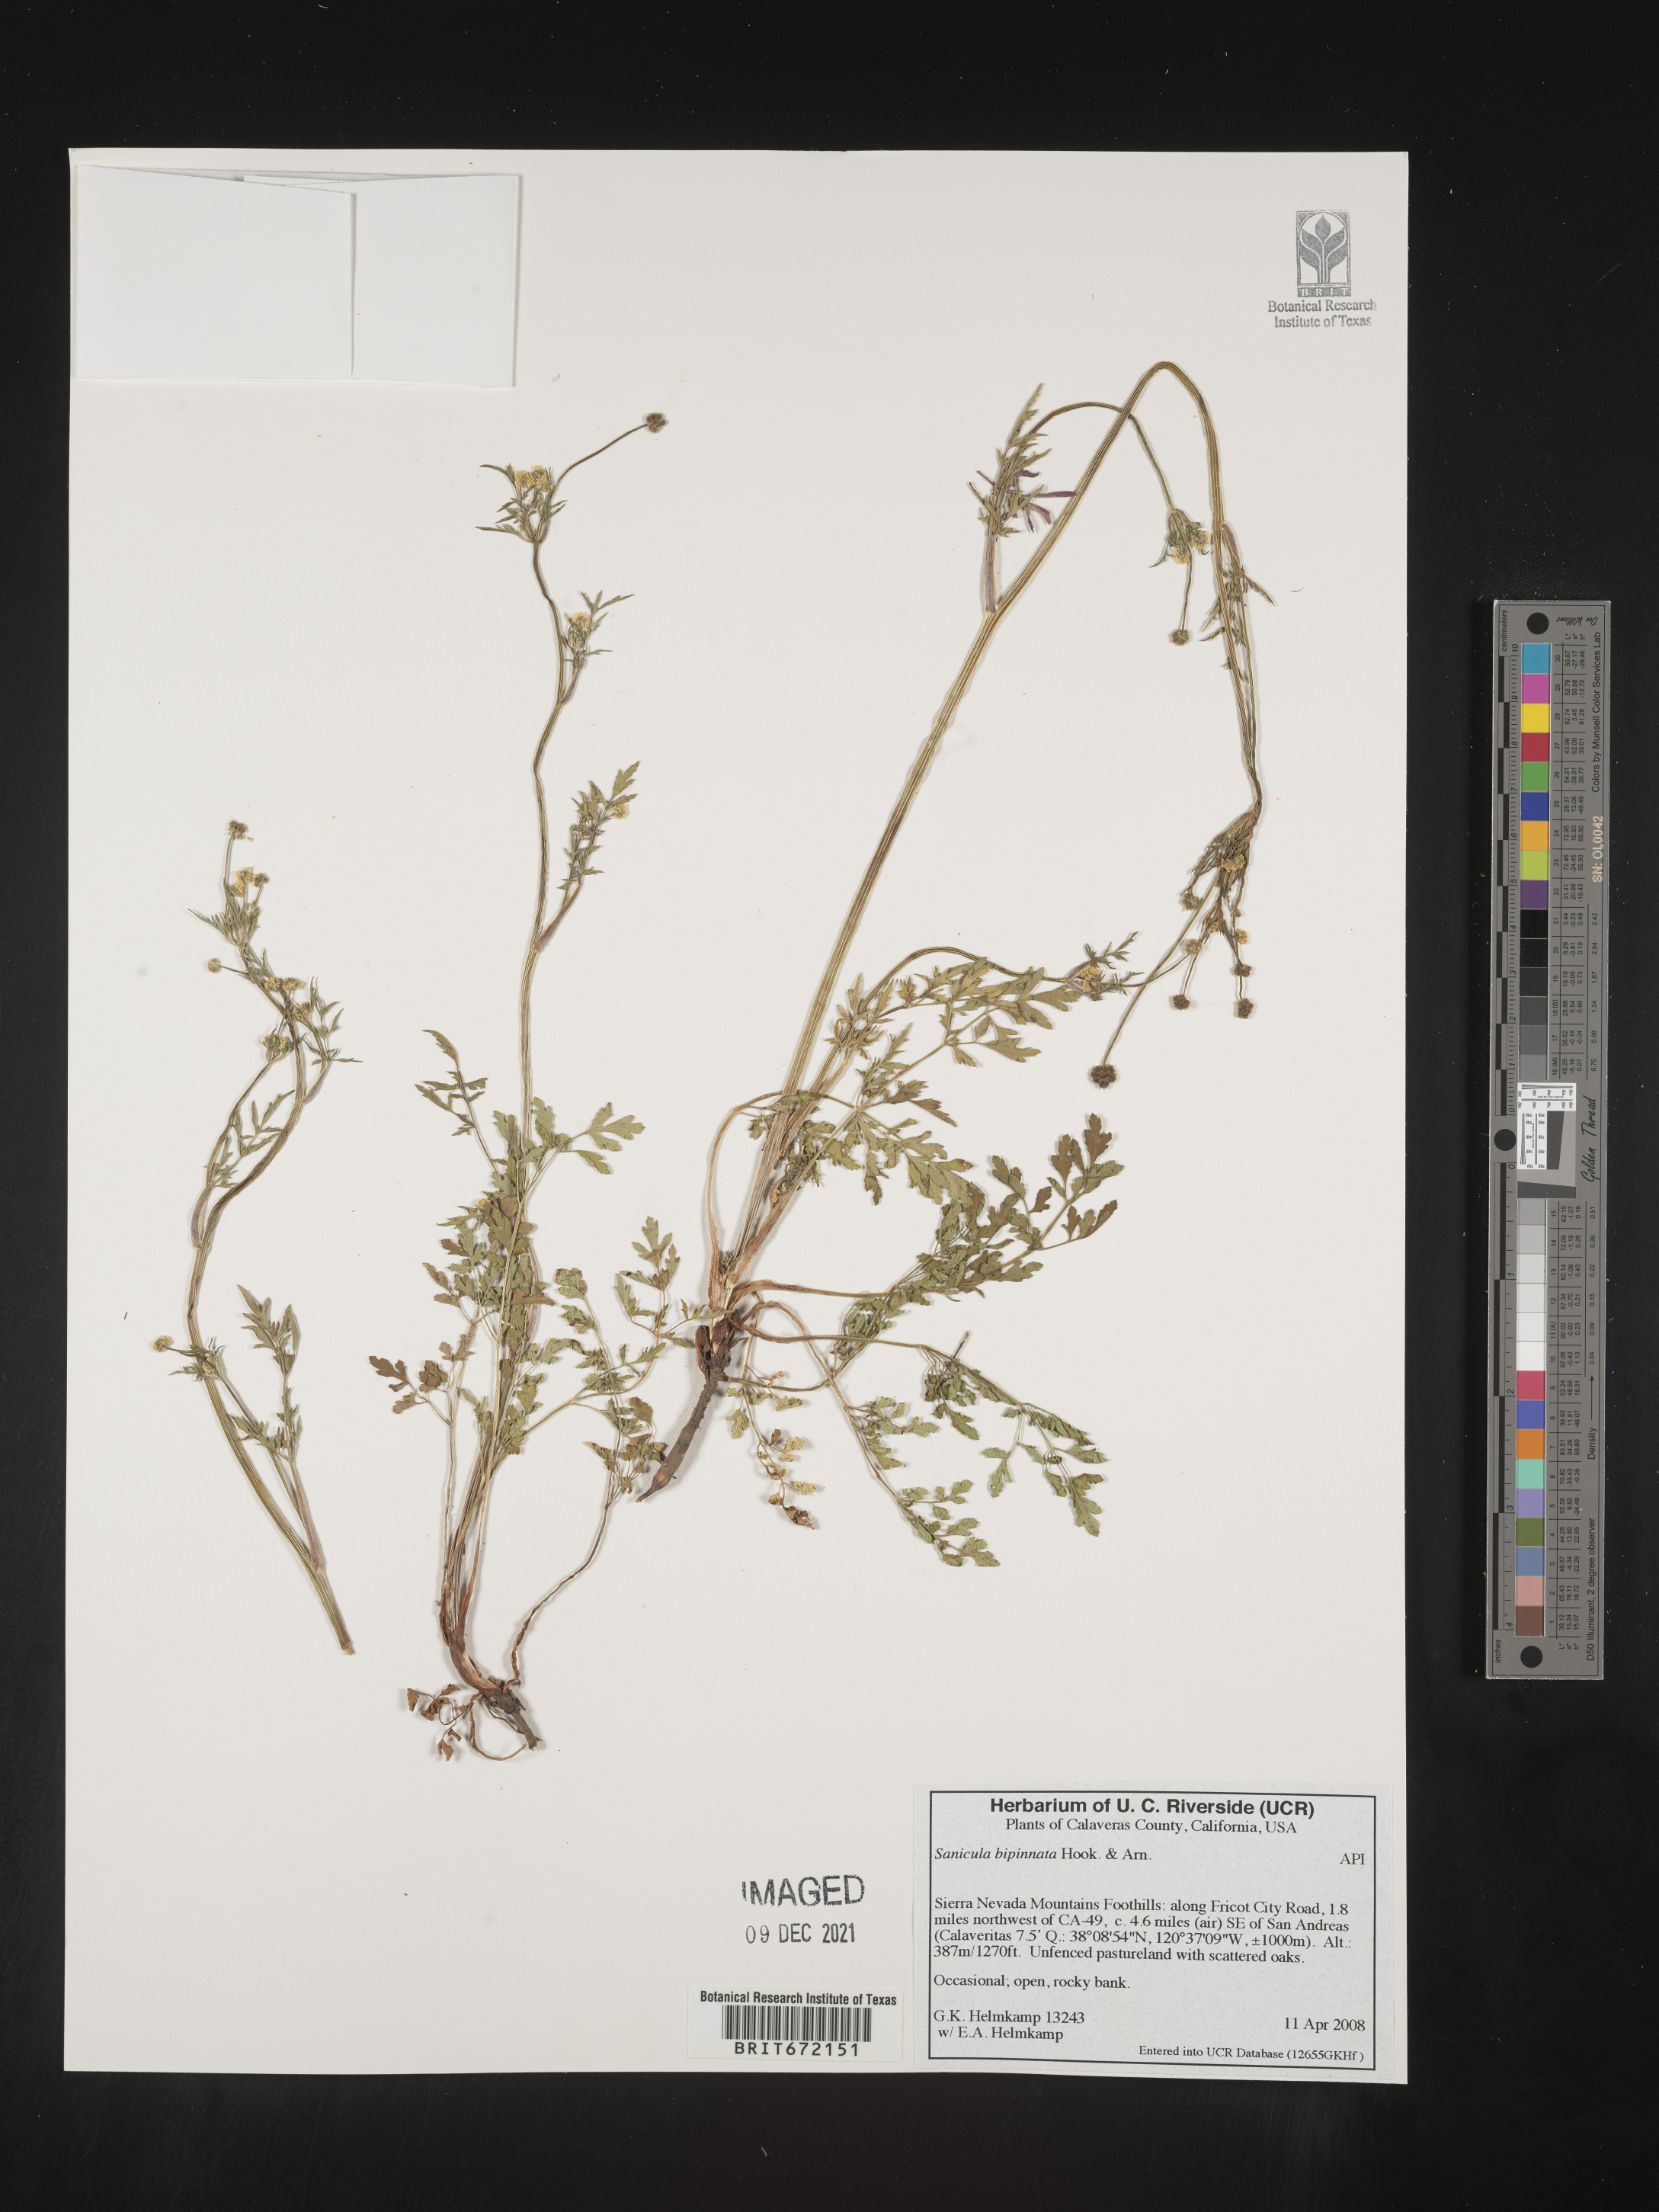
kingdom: Plantae
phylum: Tracheophyta
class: Magnoliopsida
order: Apiales
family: Apiaceae
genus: Sanicula
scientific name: Sanicula
